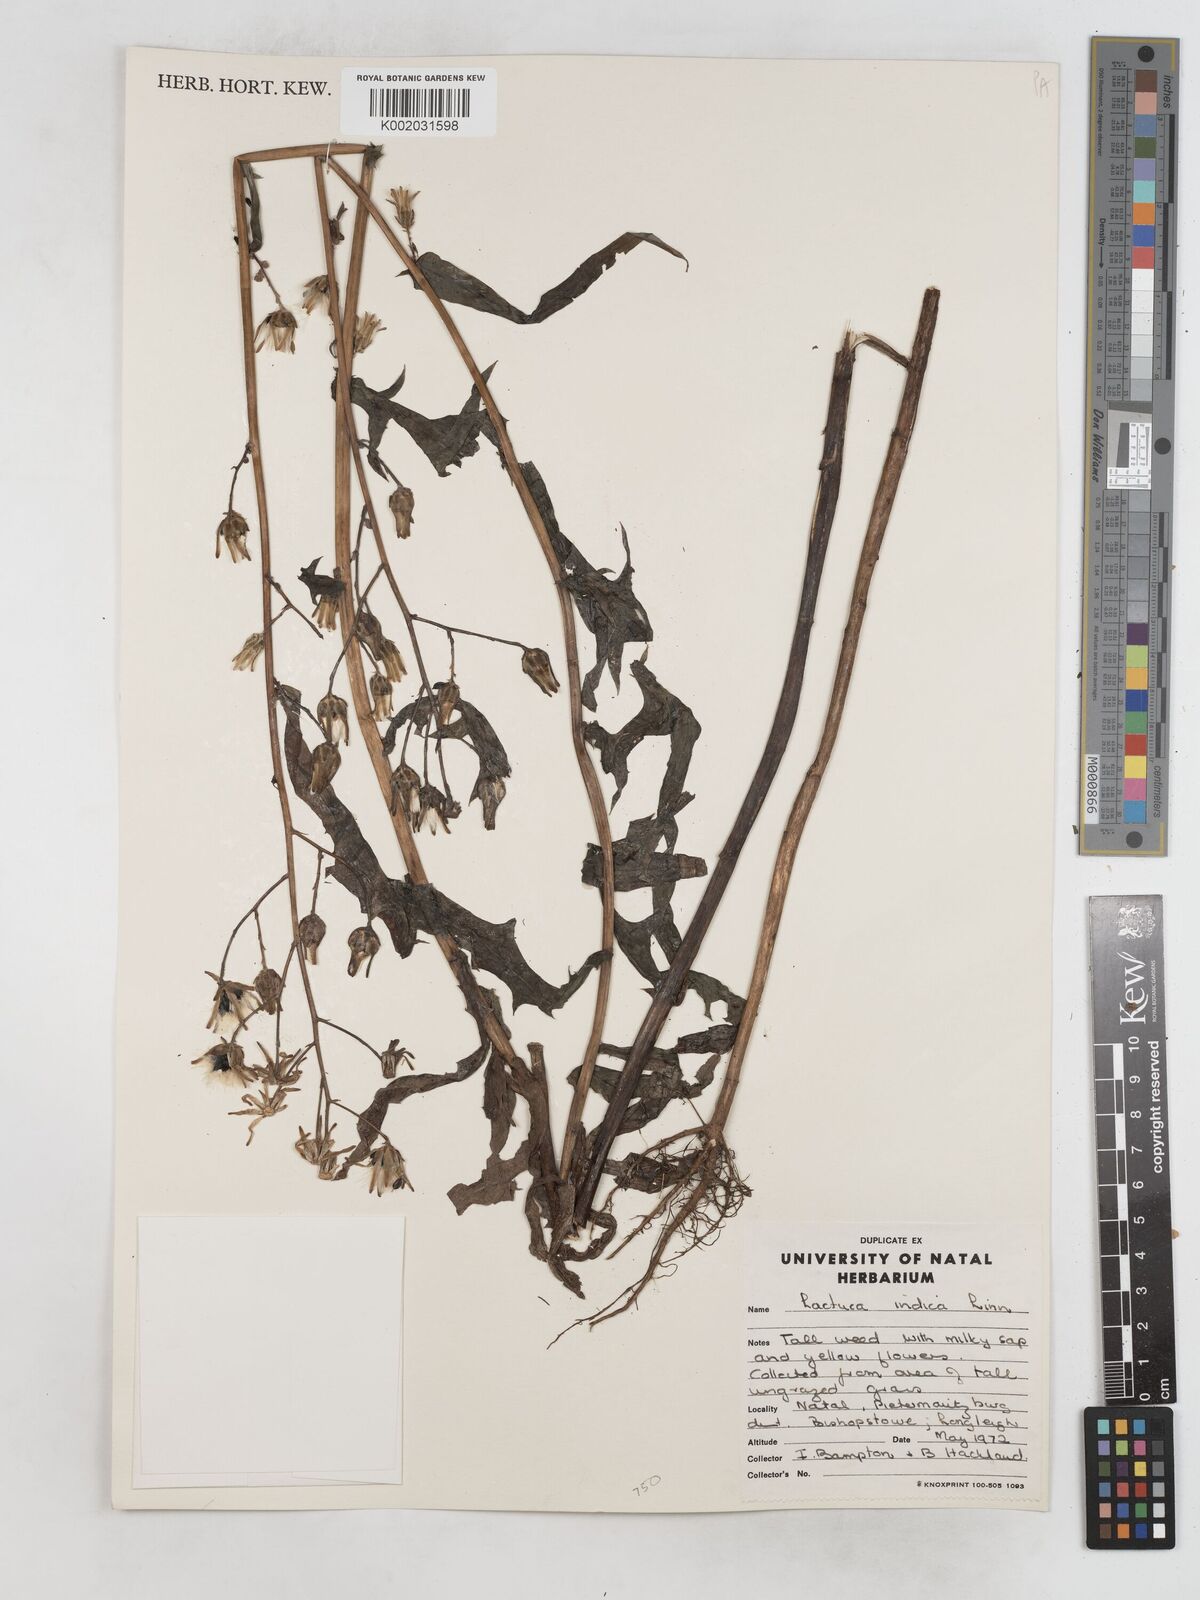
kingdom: Plantae
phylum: Tracheophyta
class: Magnoliopsida
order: Asterales
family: Asteraceae
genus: Lactuca
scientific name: Lactuca indica
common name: Wild lettuce
